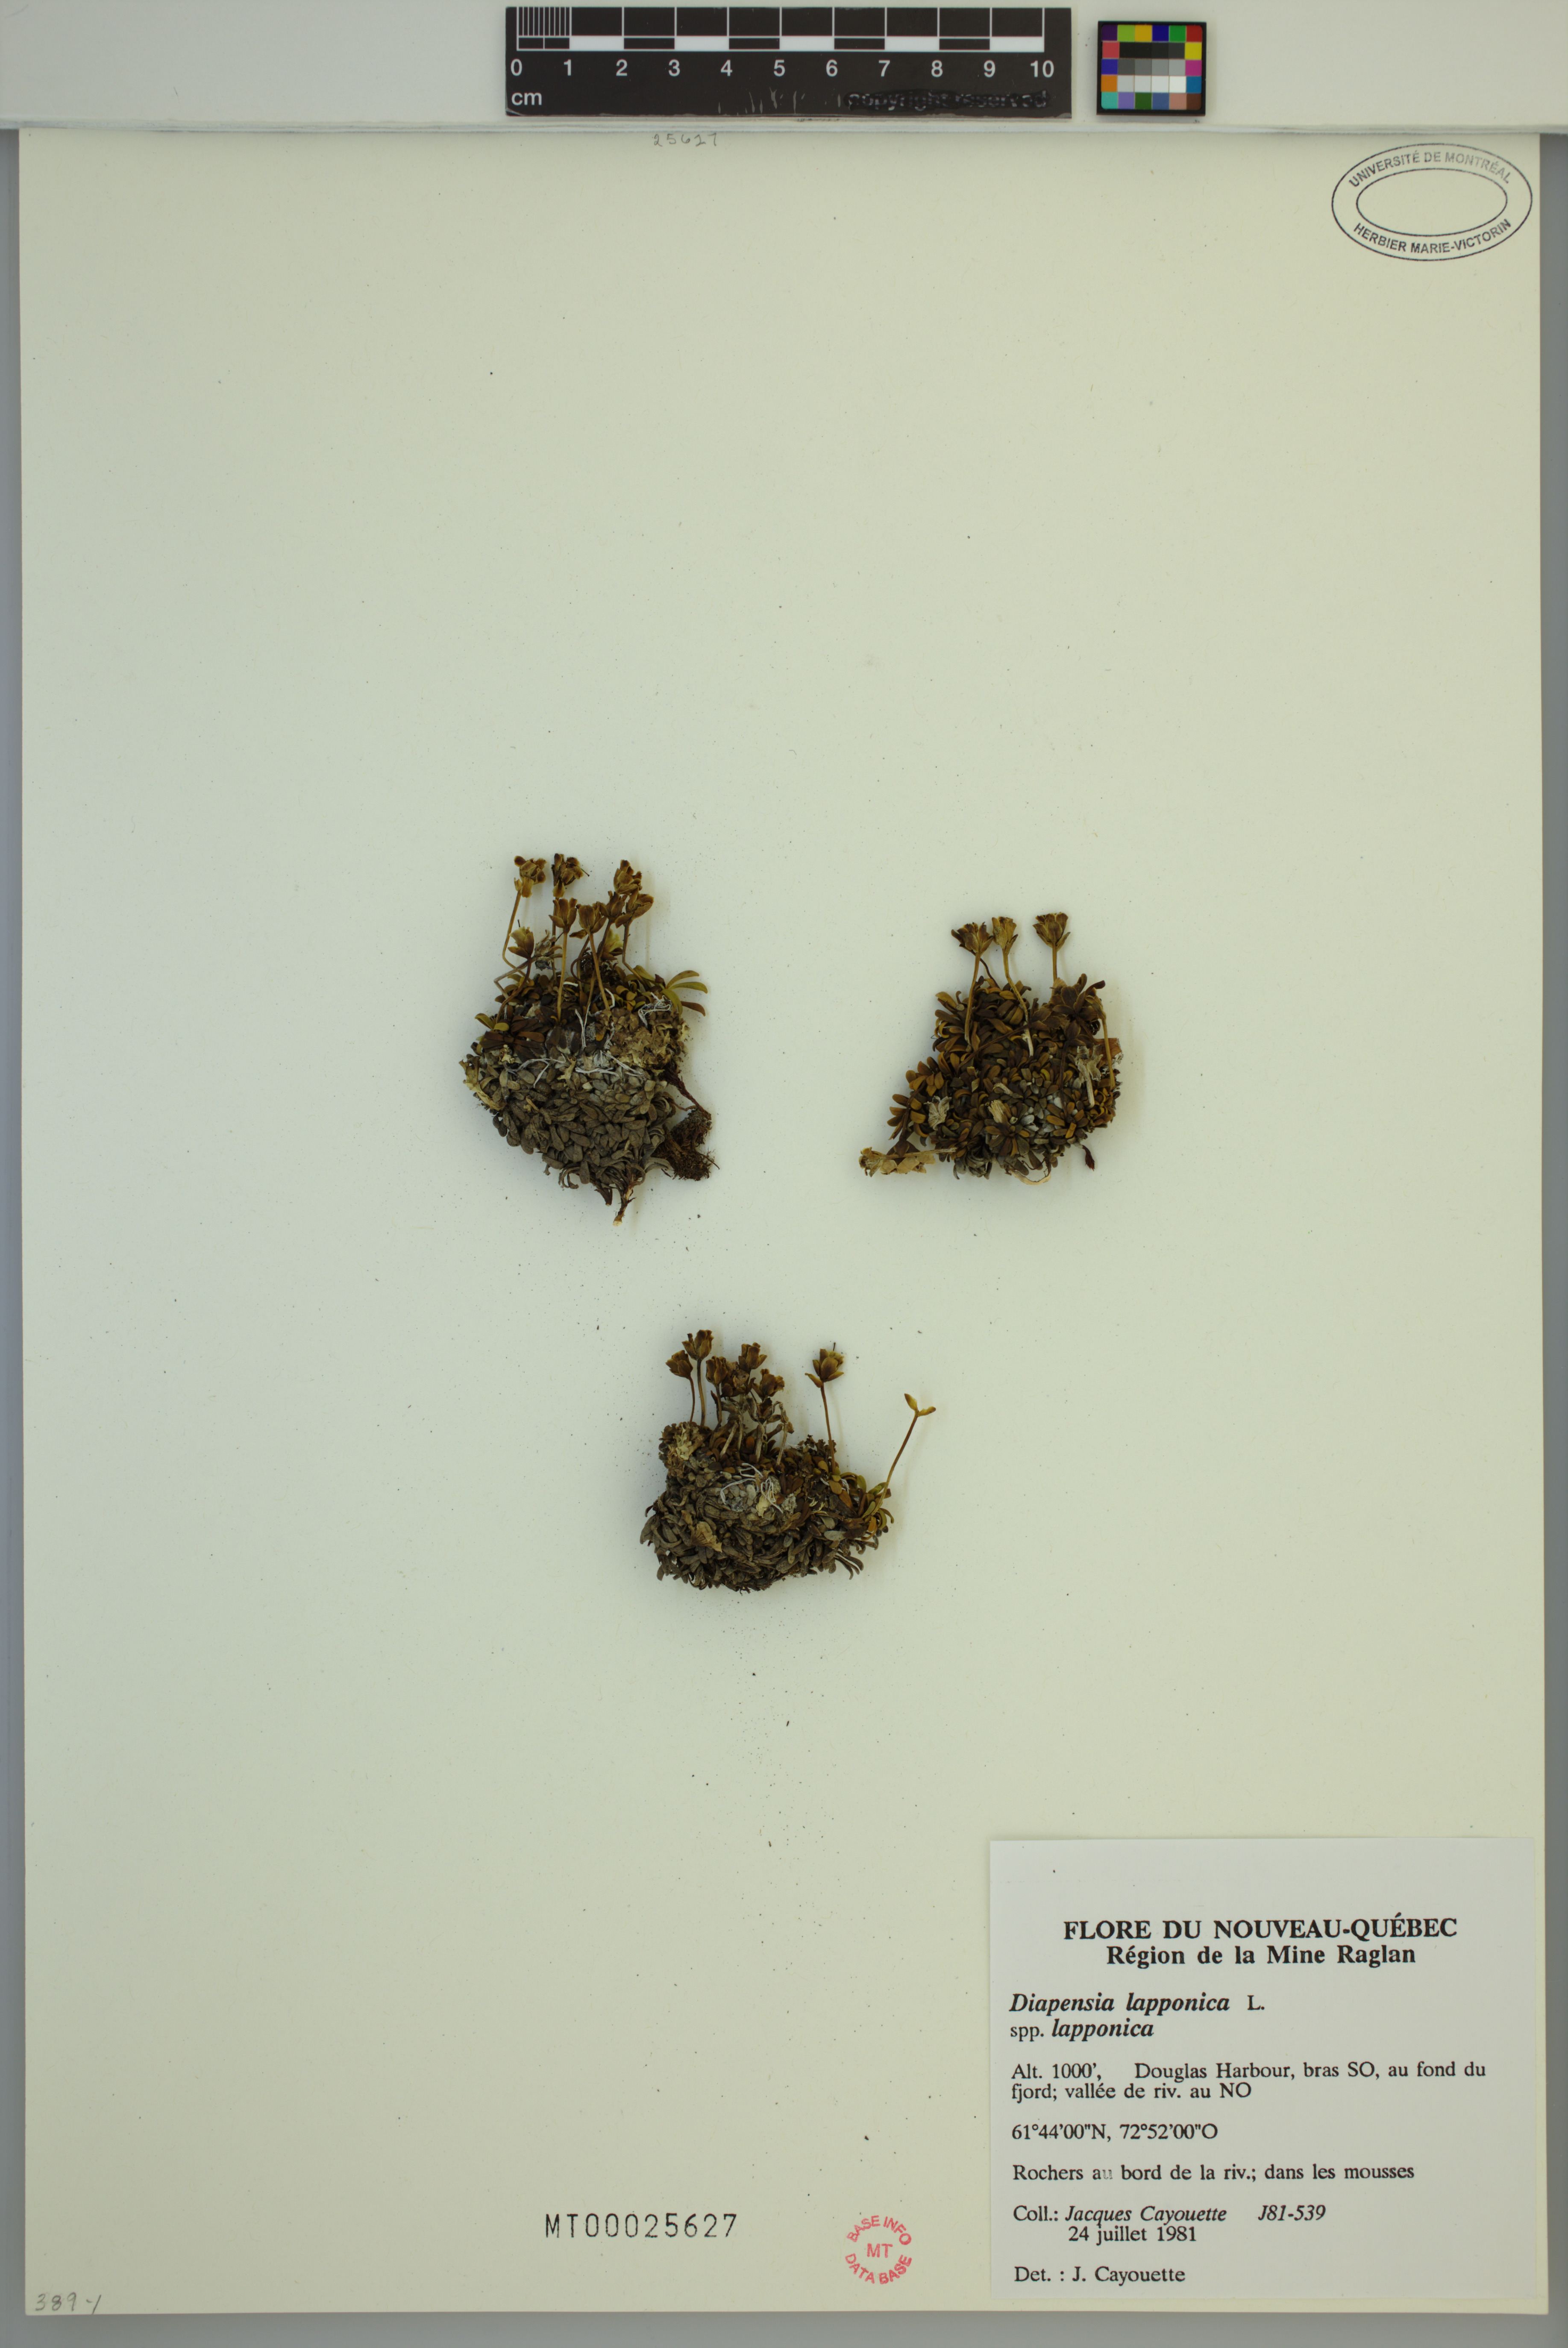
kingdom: Plantae
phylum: Tracheophyta
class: Magnoliopsida
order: Ericales
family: Diapensiaceae
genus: Diapensia
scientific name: Diapensia lapponica
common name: Diapensia
